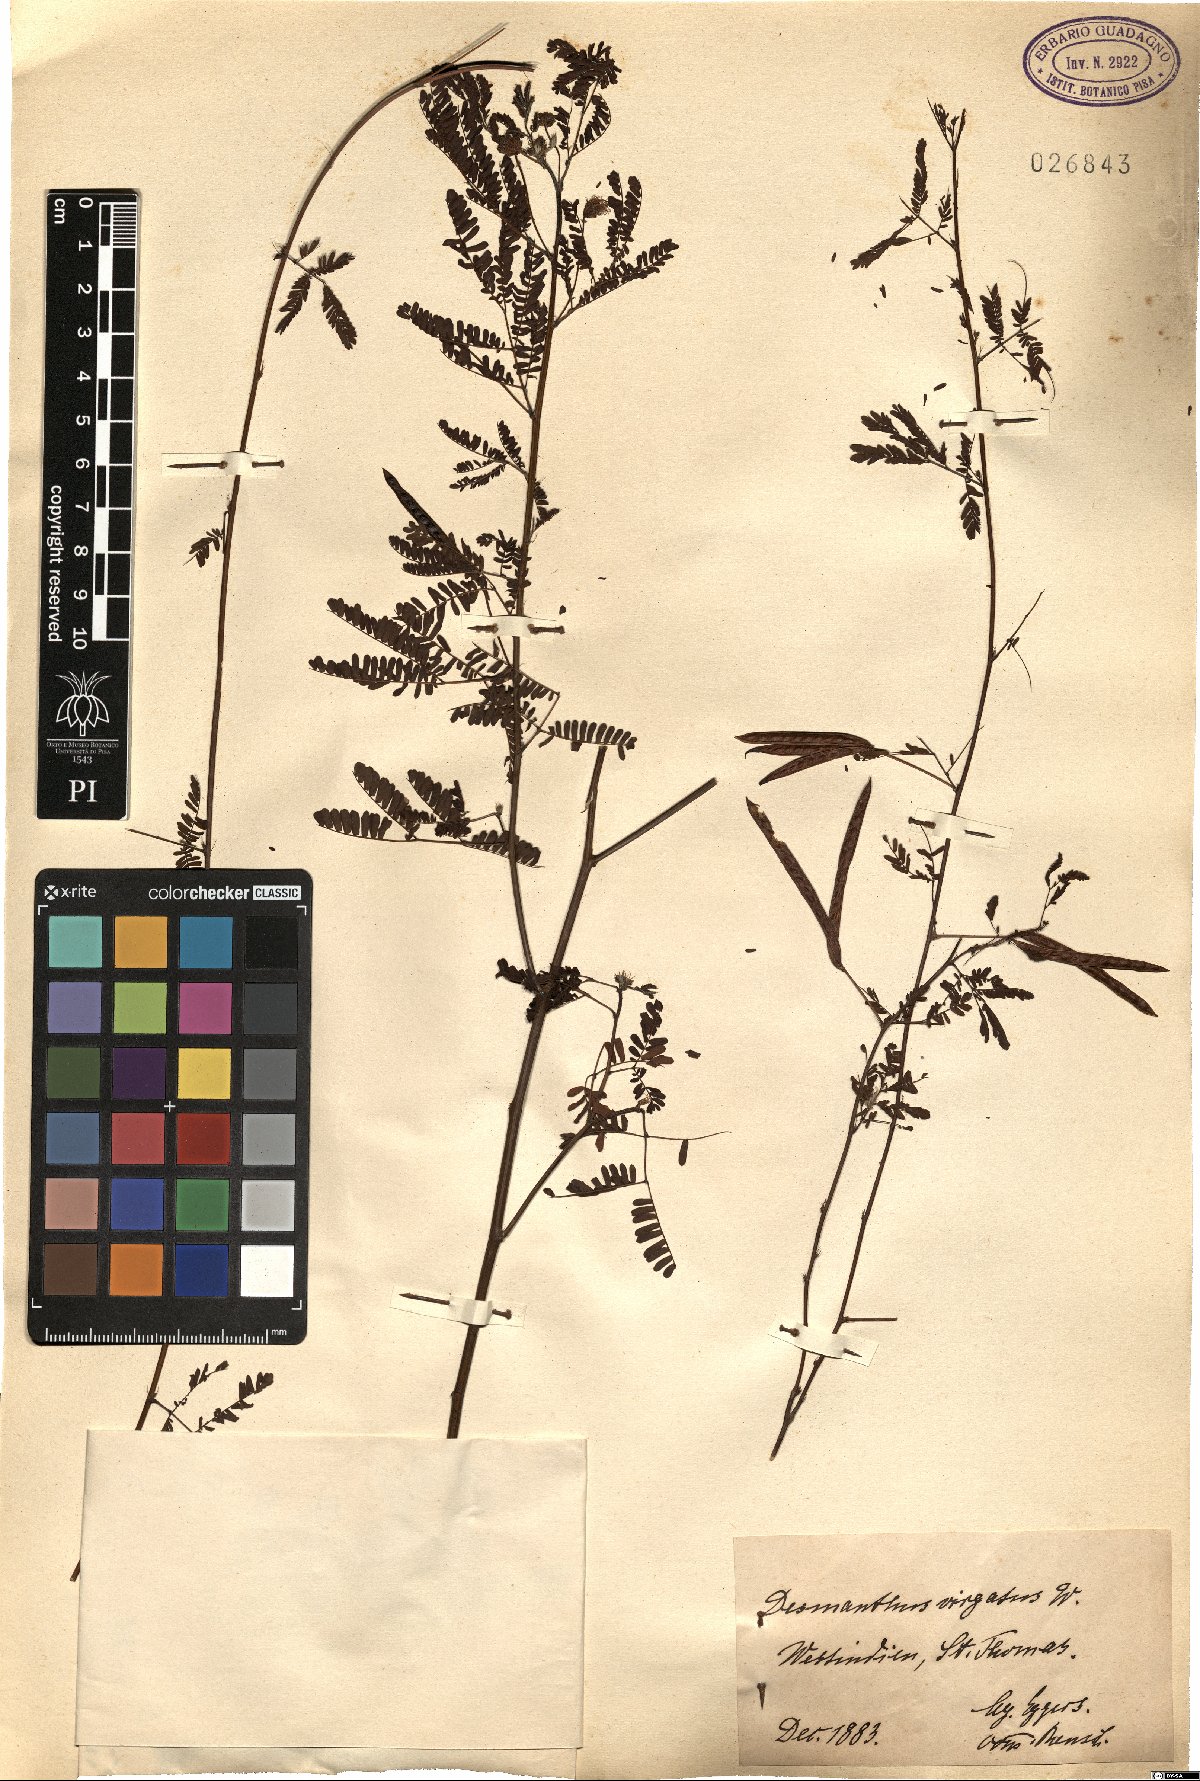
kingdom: Plantae
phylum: Tracheophyta
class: Magnoliopsida
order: Fabales
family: Fabaceae
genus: Desmanthus
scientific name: Desmanthus virgatus
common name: Wild tantan
